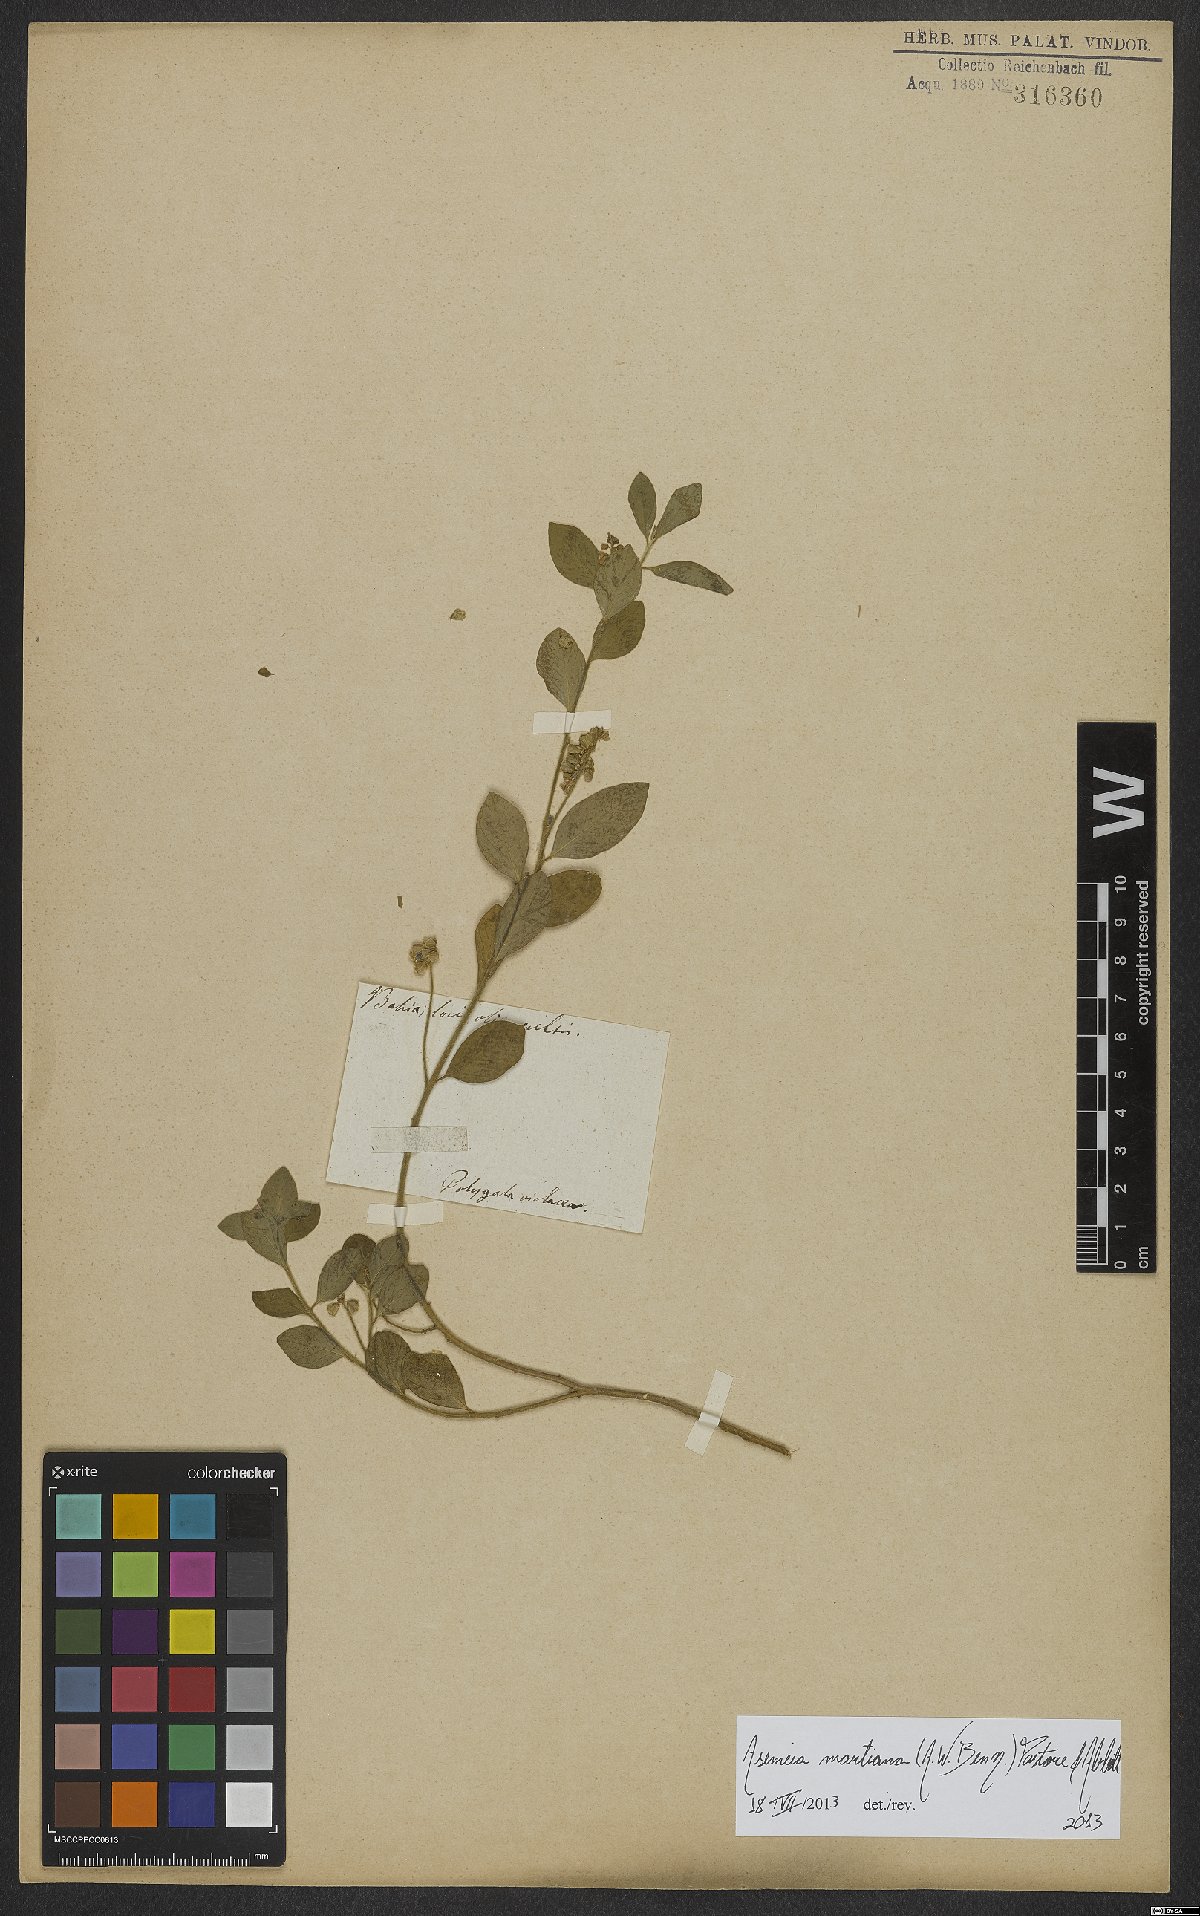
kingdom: Plantae
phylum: Tracheophyta
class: Magnoliopsida
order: Fabales
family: Polygalaceae
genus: Asemeia
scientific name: Asemeia martiana
